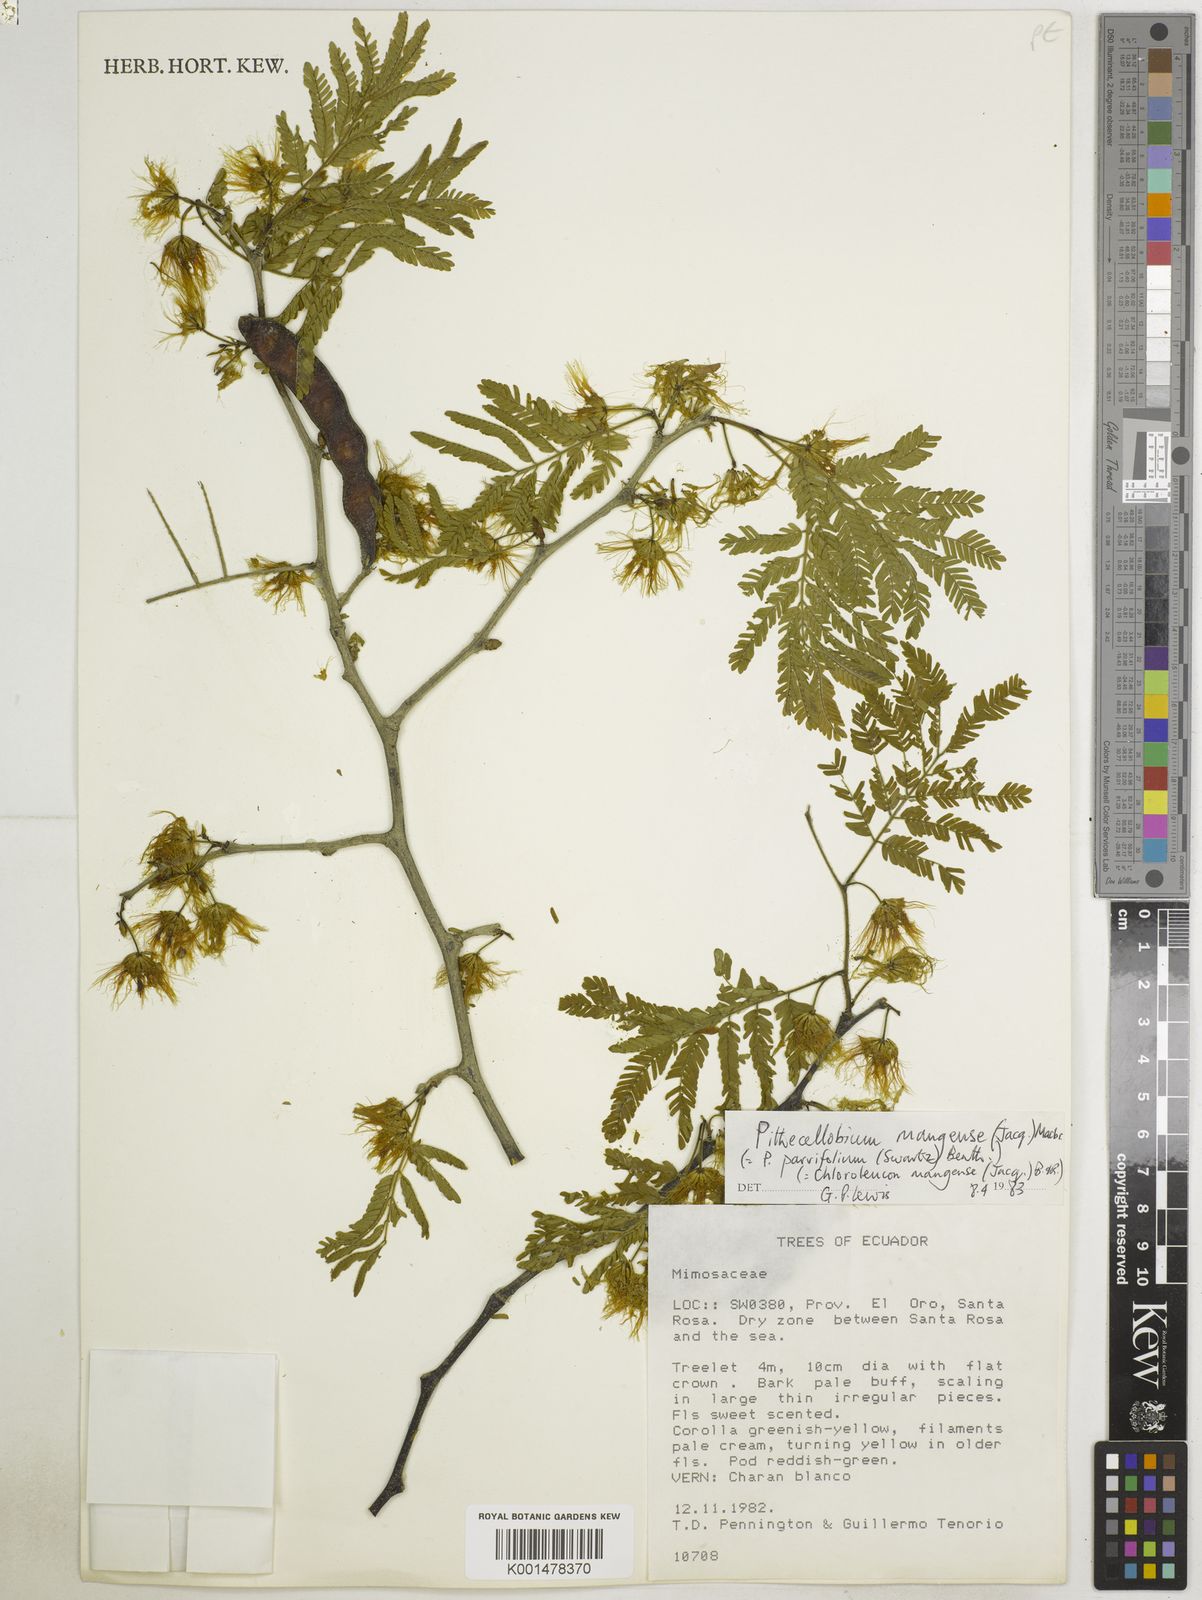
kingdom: Plantae
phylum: Tracheophyta
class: Magnoliopsida
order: Fabales
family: Fabaceae
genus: Chloroleucon
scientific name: Chloroleucon mangense
